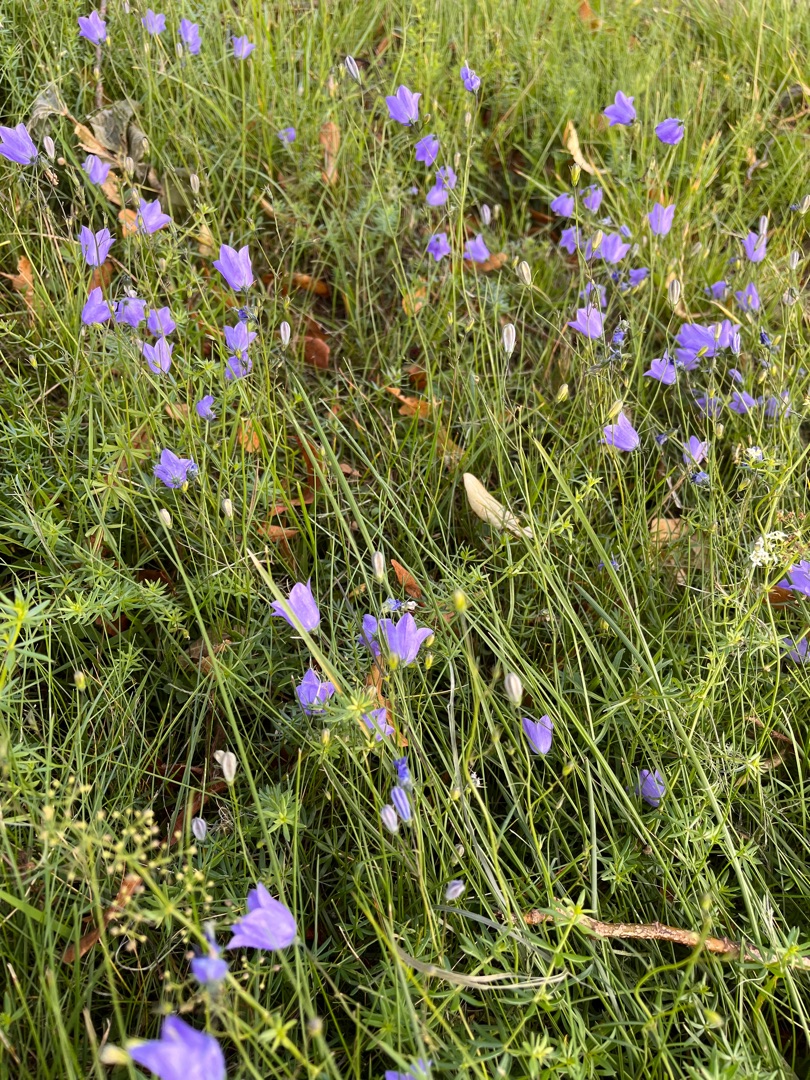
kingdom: Plantae
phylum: Tracheophyta
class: Magnoliopsida
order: Asterales
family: Campanulaceae
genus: Campanula
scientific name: Campanula rotundifolia
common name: Liden klokke
